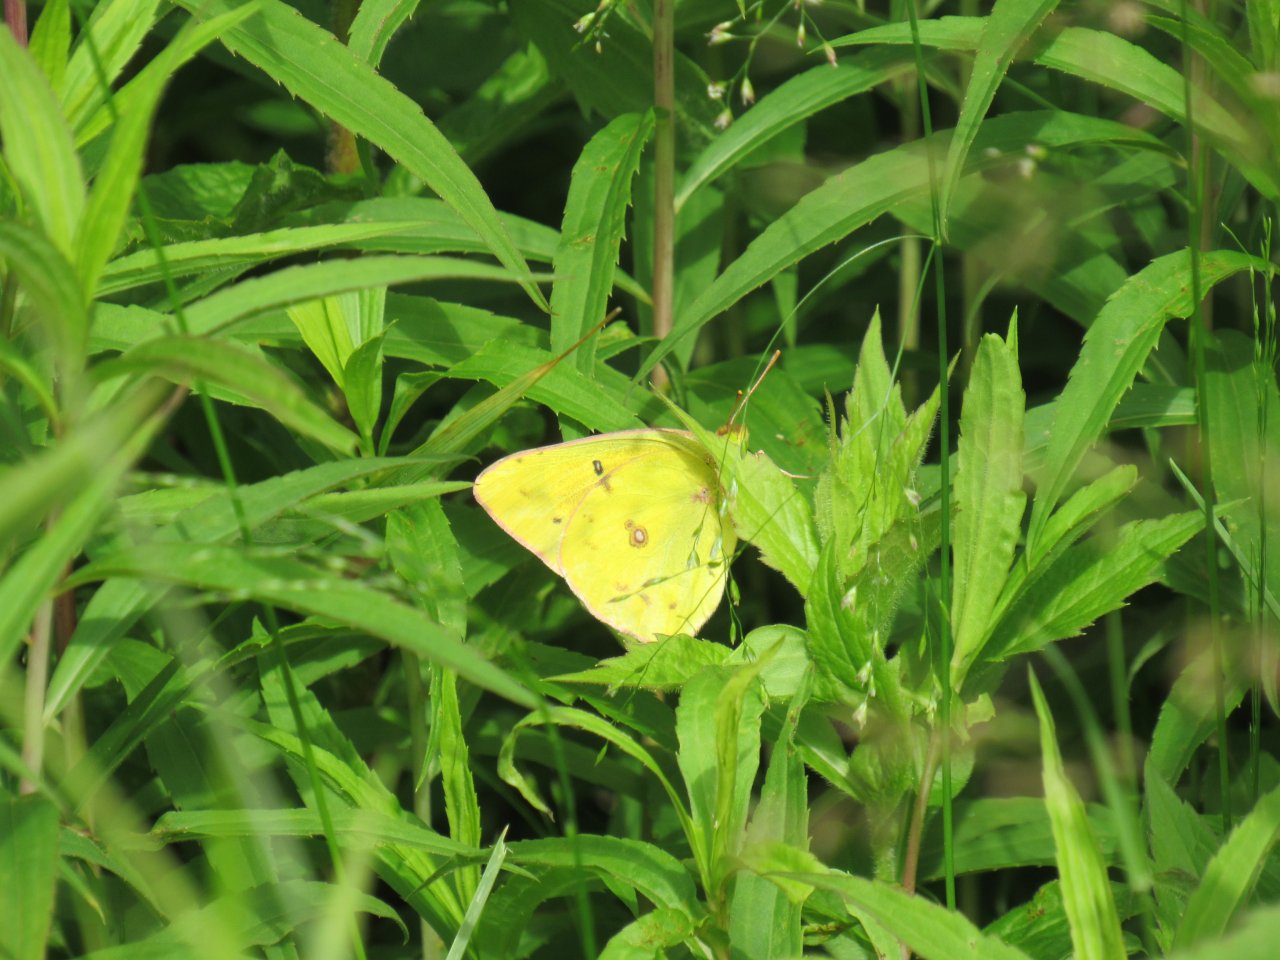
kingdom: Animalia
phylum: Arthropoda
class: Insecta
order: Lepidoptera
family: Pieridae
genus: Colias
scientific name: Colias philodice
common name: Clouded Sulphur
